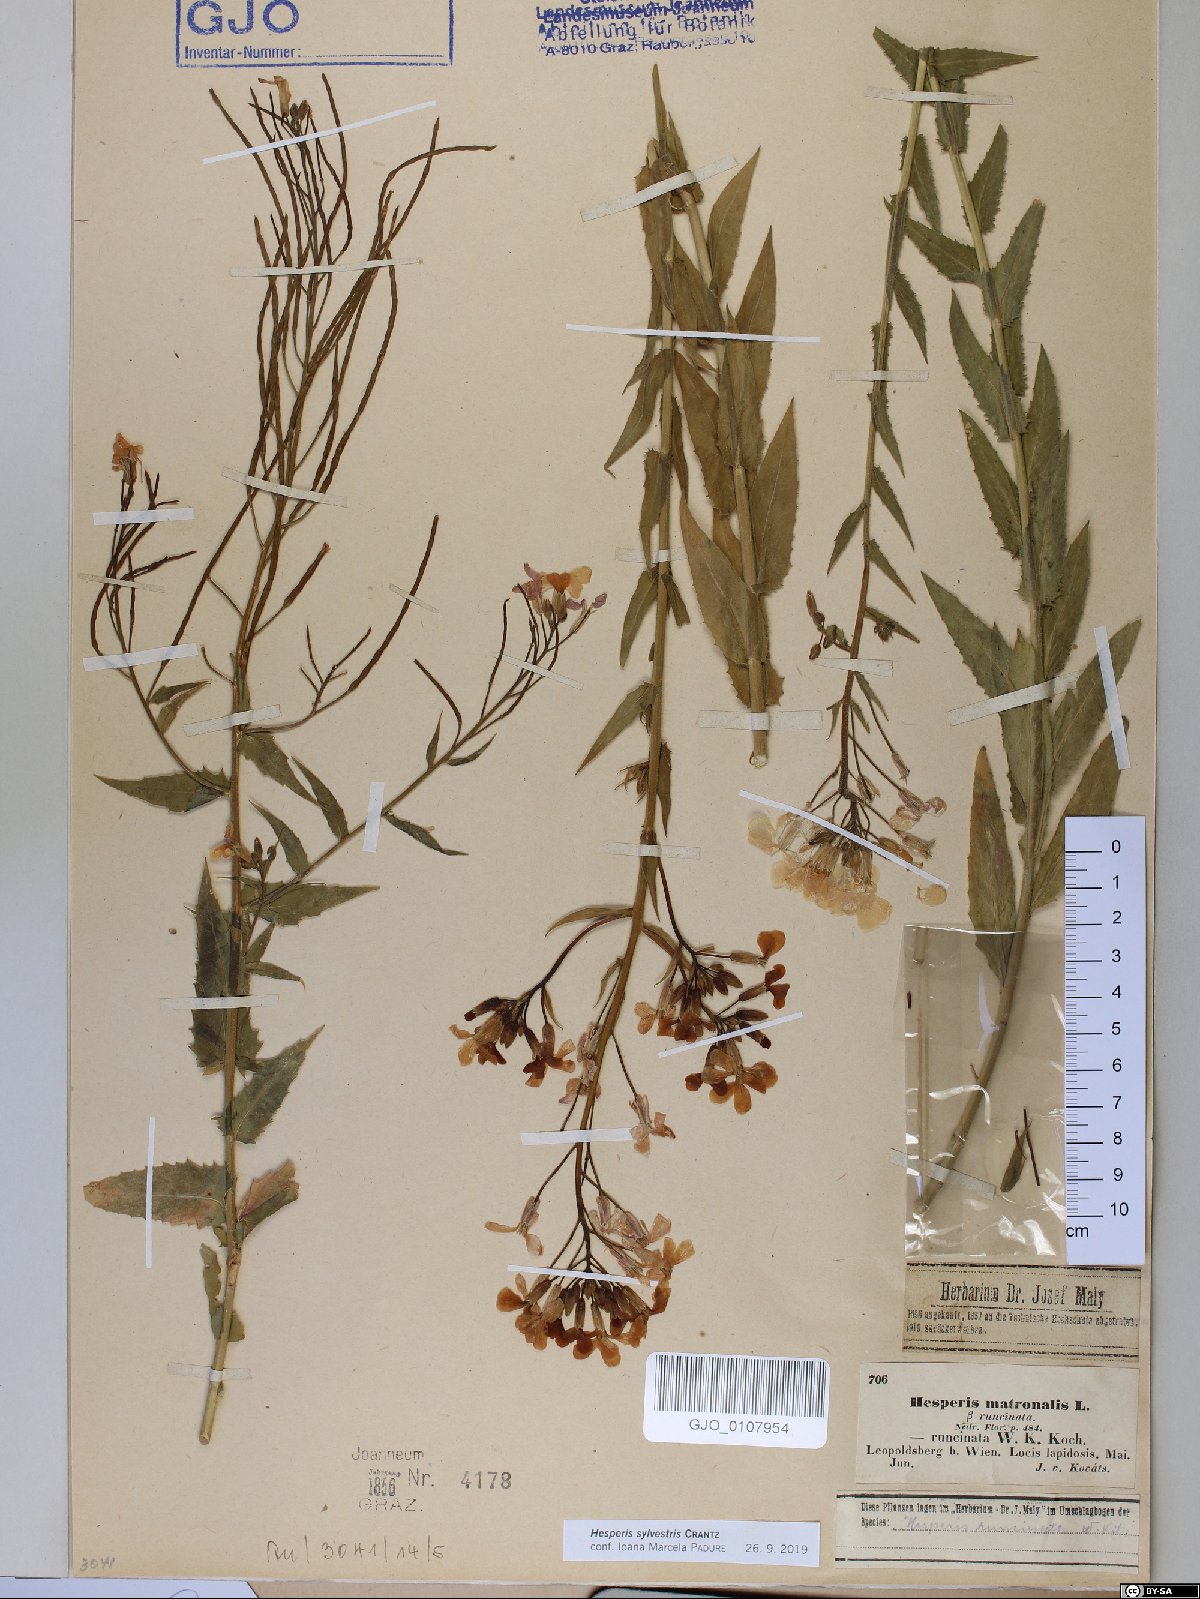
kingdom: Plantae
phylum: Tracheophyta
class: Magnoliopsida
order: Brassicales
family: Brassicaceae
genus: Hesperis
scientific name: Hesperis sylvestris
